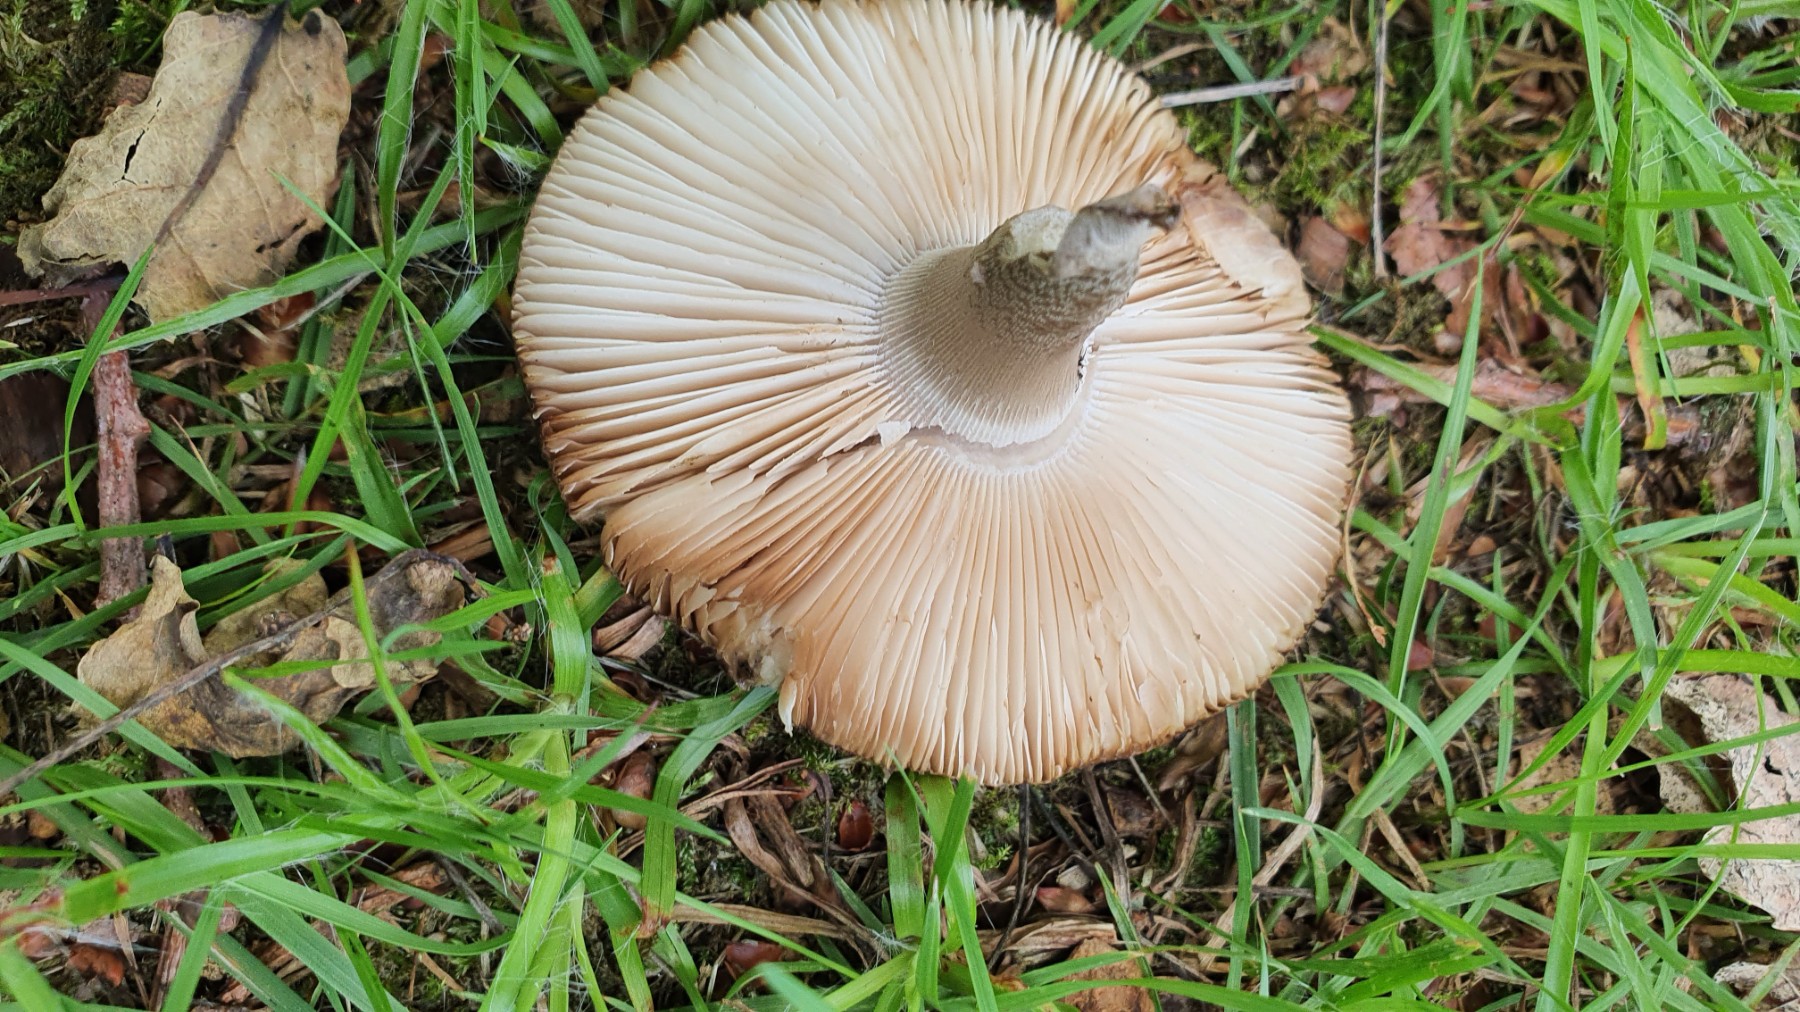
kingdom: Fungi
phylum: Basidiomycota
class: Agaricomycetes
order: Agaricales
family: Amanitaceae
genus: Amanita
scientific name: Amanita rubescens
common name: rødmende fluesvamp
